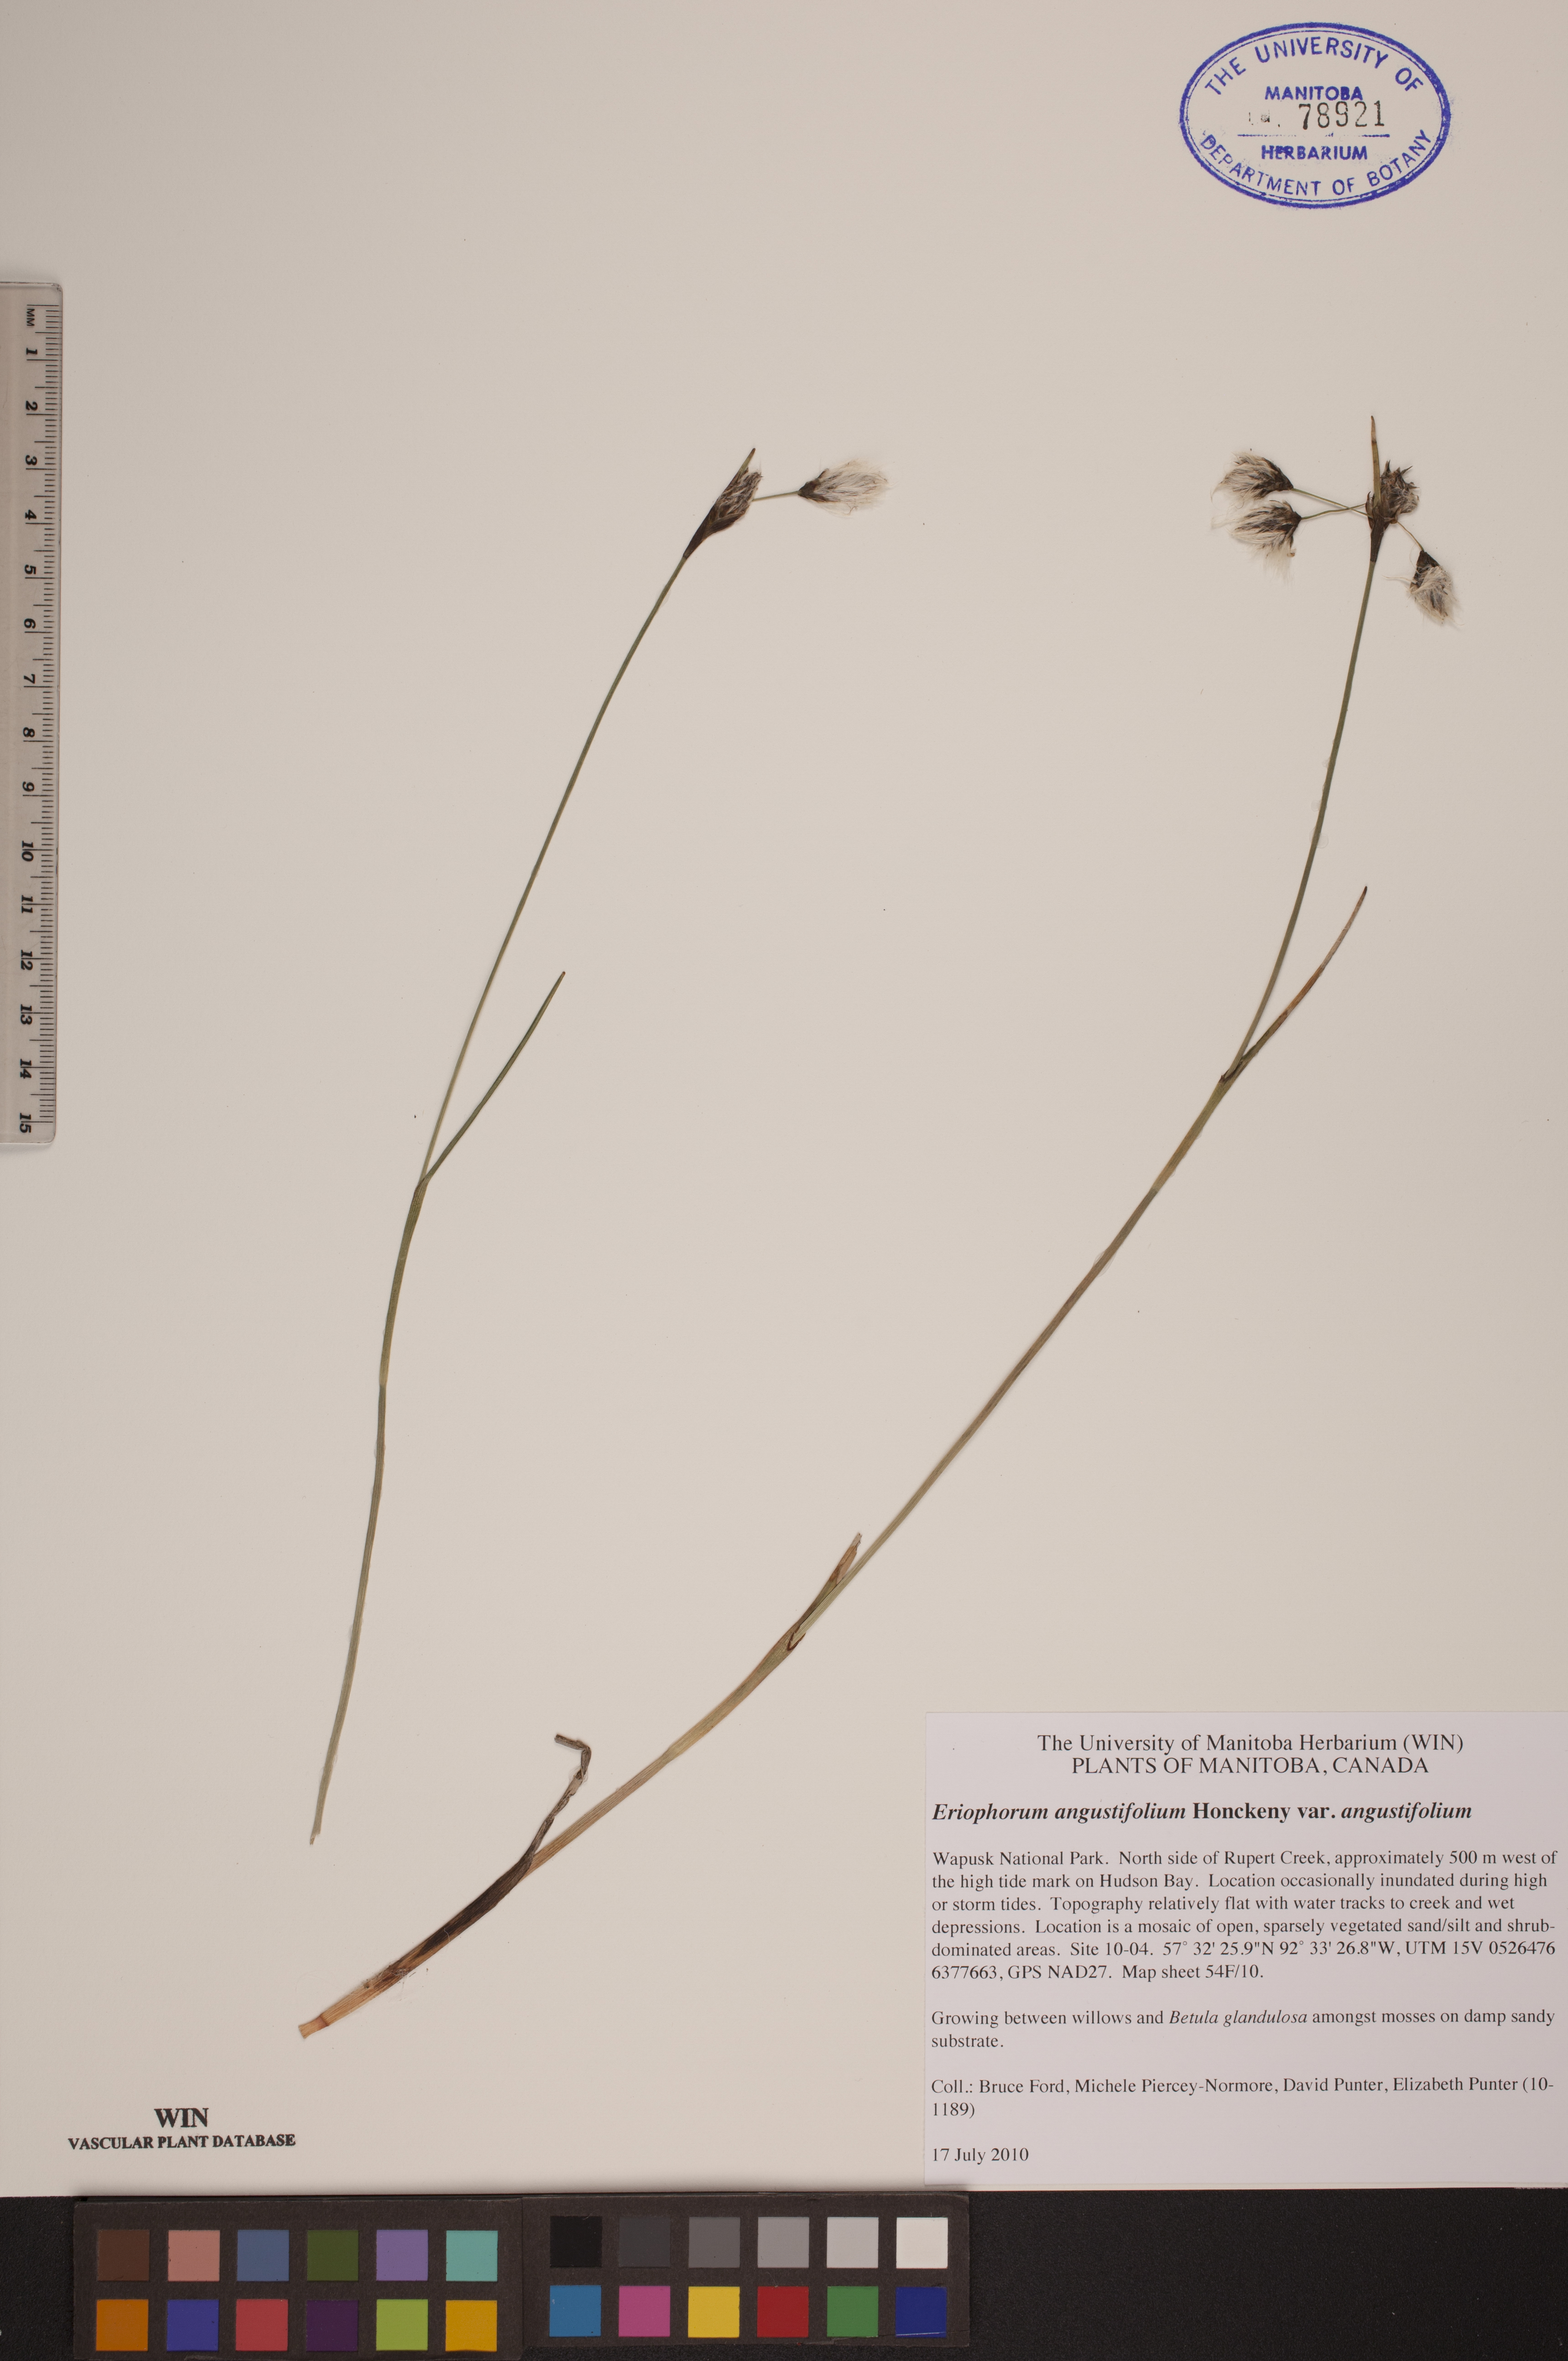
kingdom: Plantae
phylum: Tracheophyta
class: Liliopsida
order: Poales
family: Cyperaceae
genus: Eriophorum
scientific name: Eriophorum angustifolium
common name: Common cottongrass
